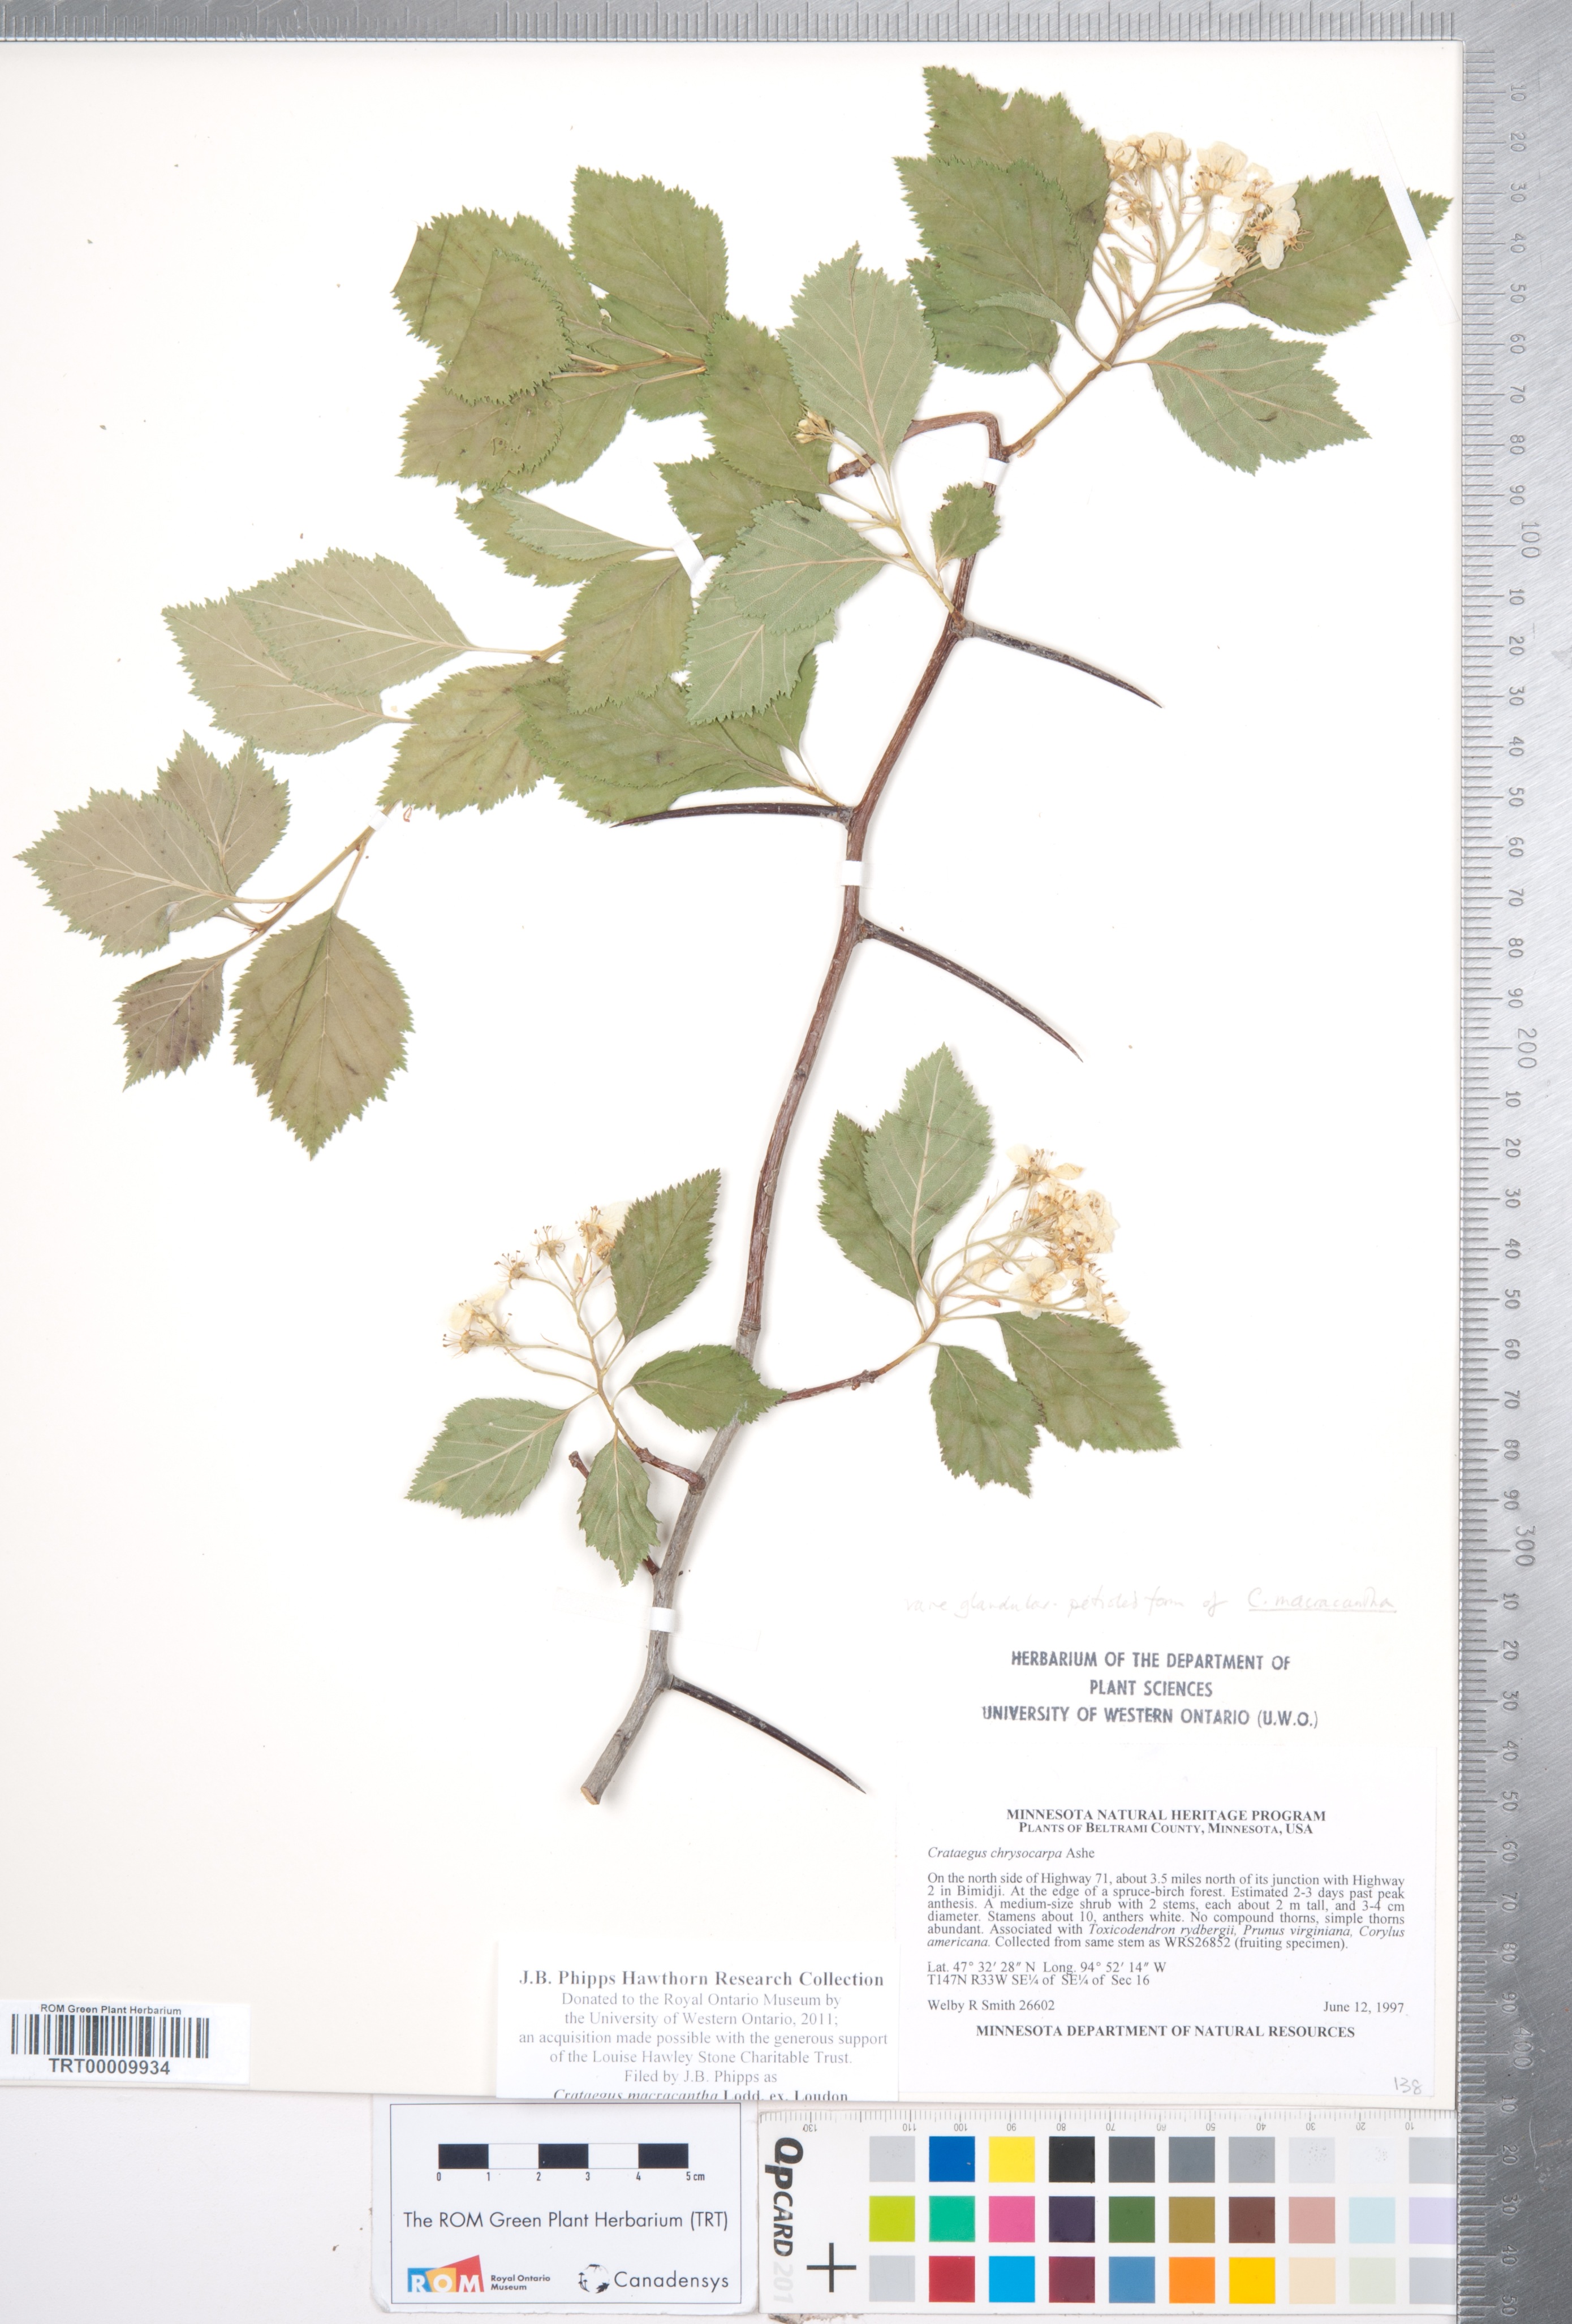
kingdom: Plantae
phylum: Tracheophyta
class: Magnoliopsida
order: Rosales
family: Rosaceae
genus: Crataegus
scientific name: Crataegus macracantha
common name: Large-thorn hawthorn
